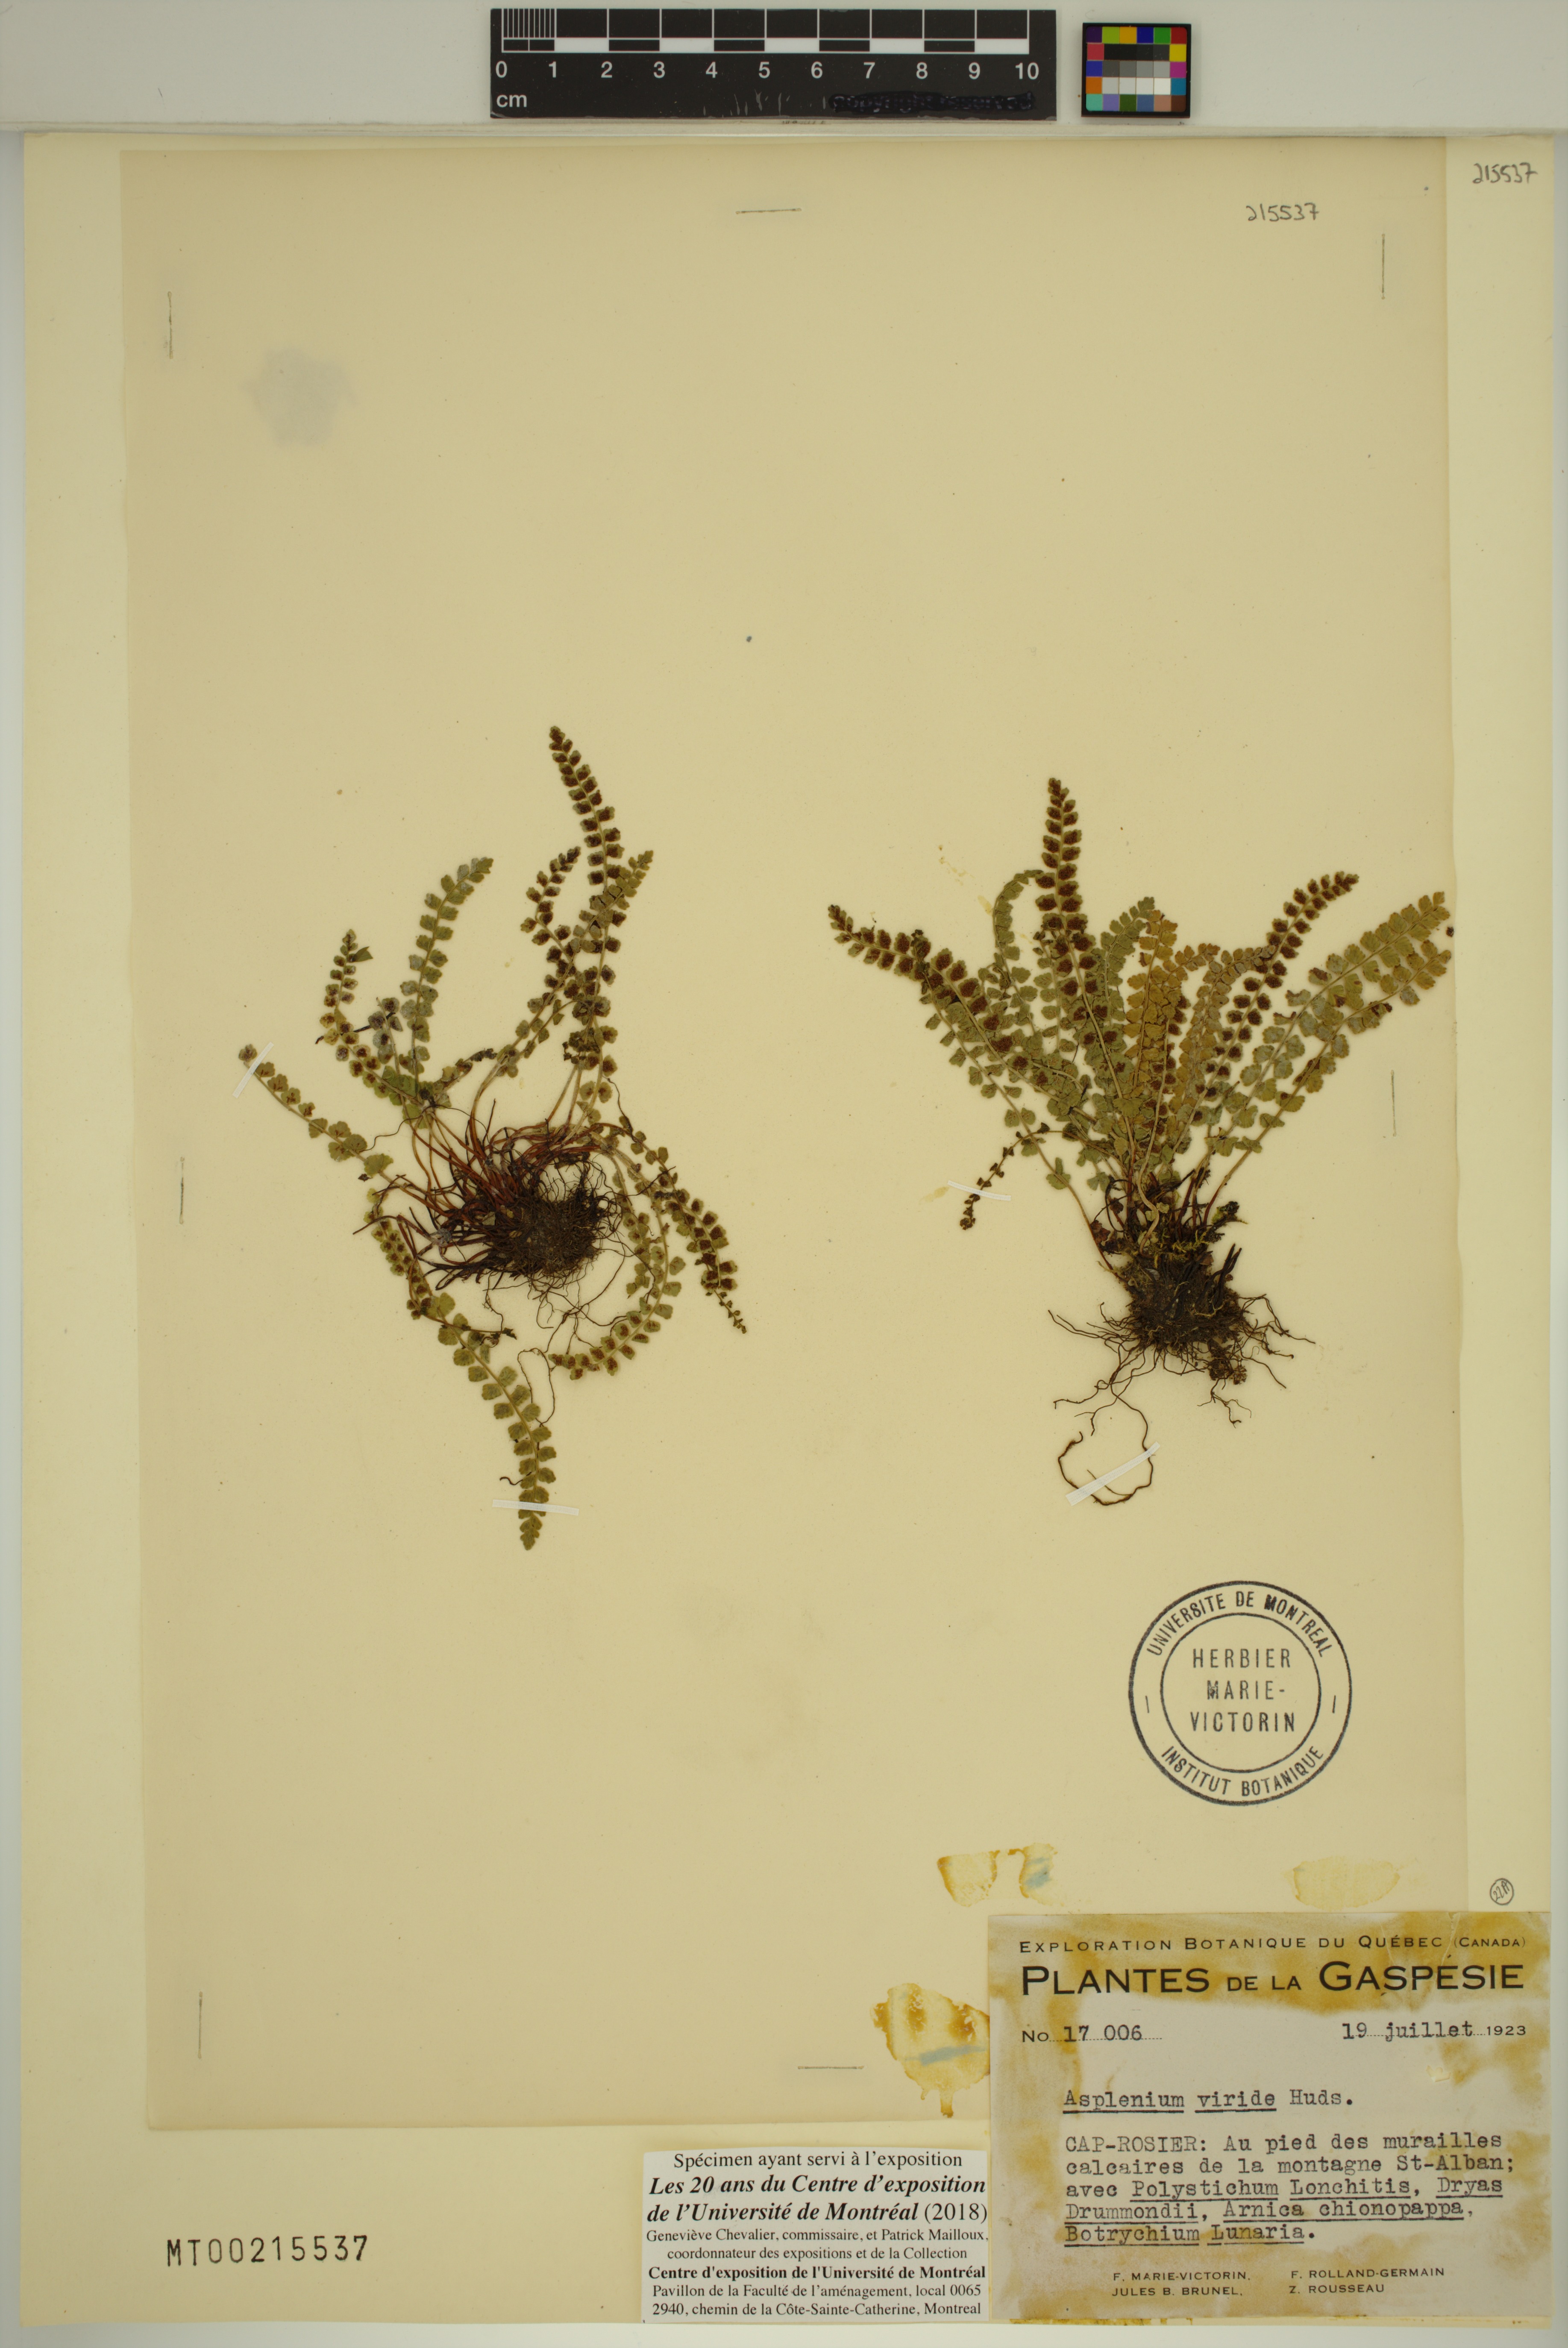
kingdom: Plantae
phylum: Tracheophyta
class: Polypodiopsida
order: Polypodiales
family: Aspleniaceae
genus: Asplenium
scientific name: Asplenium viride
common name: Green spleenwort
